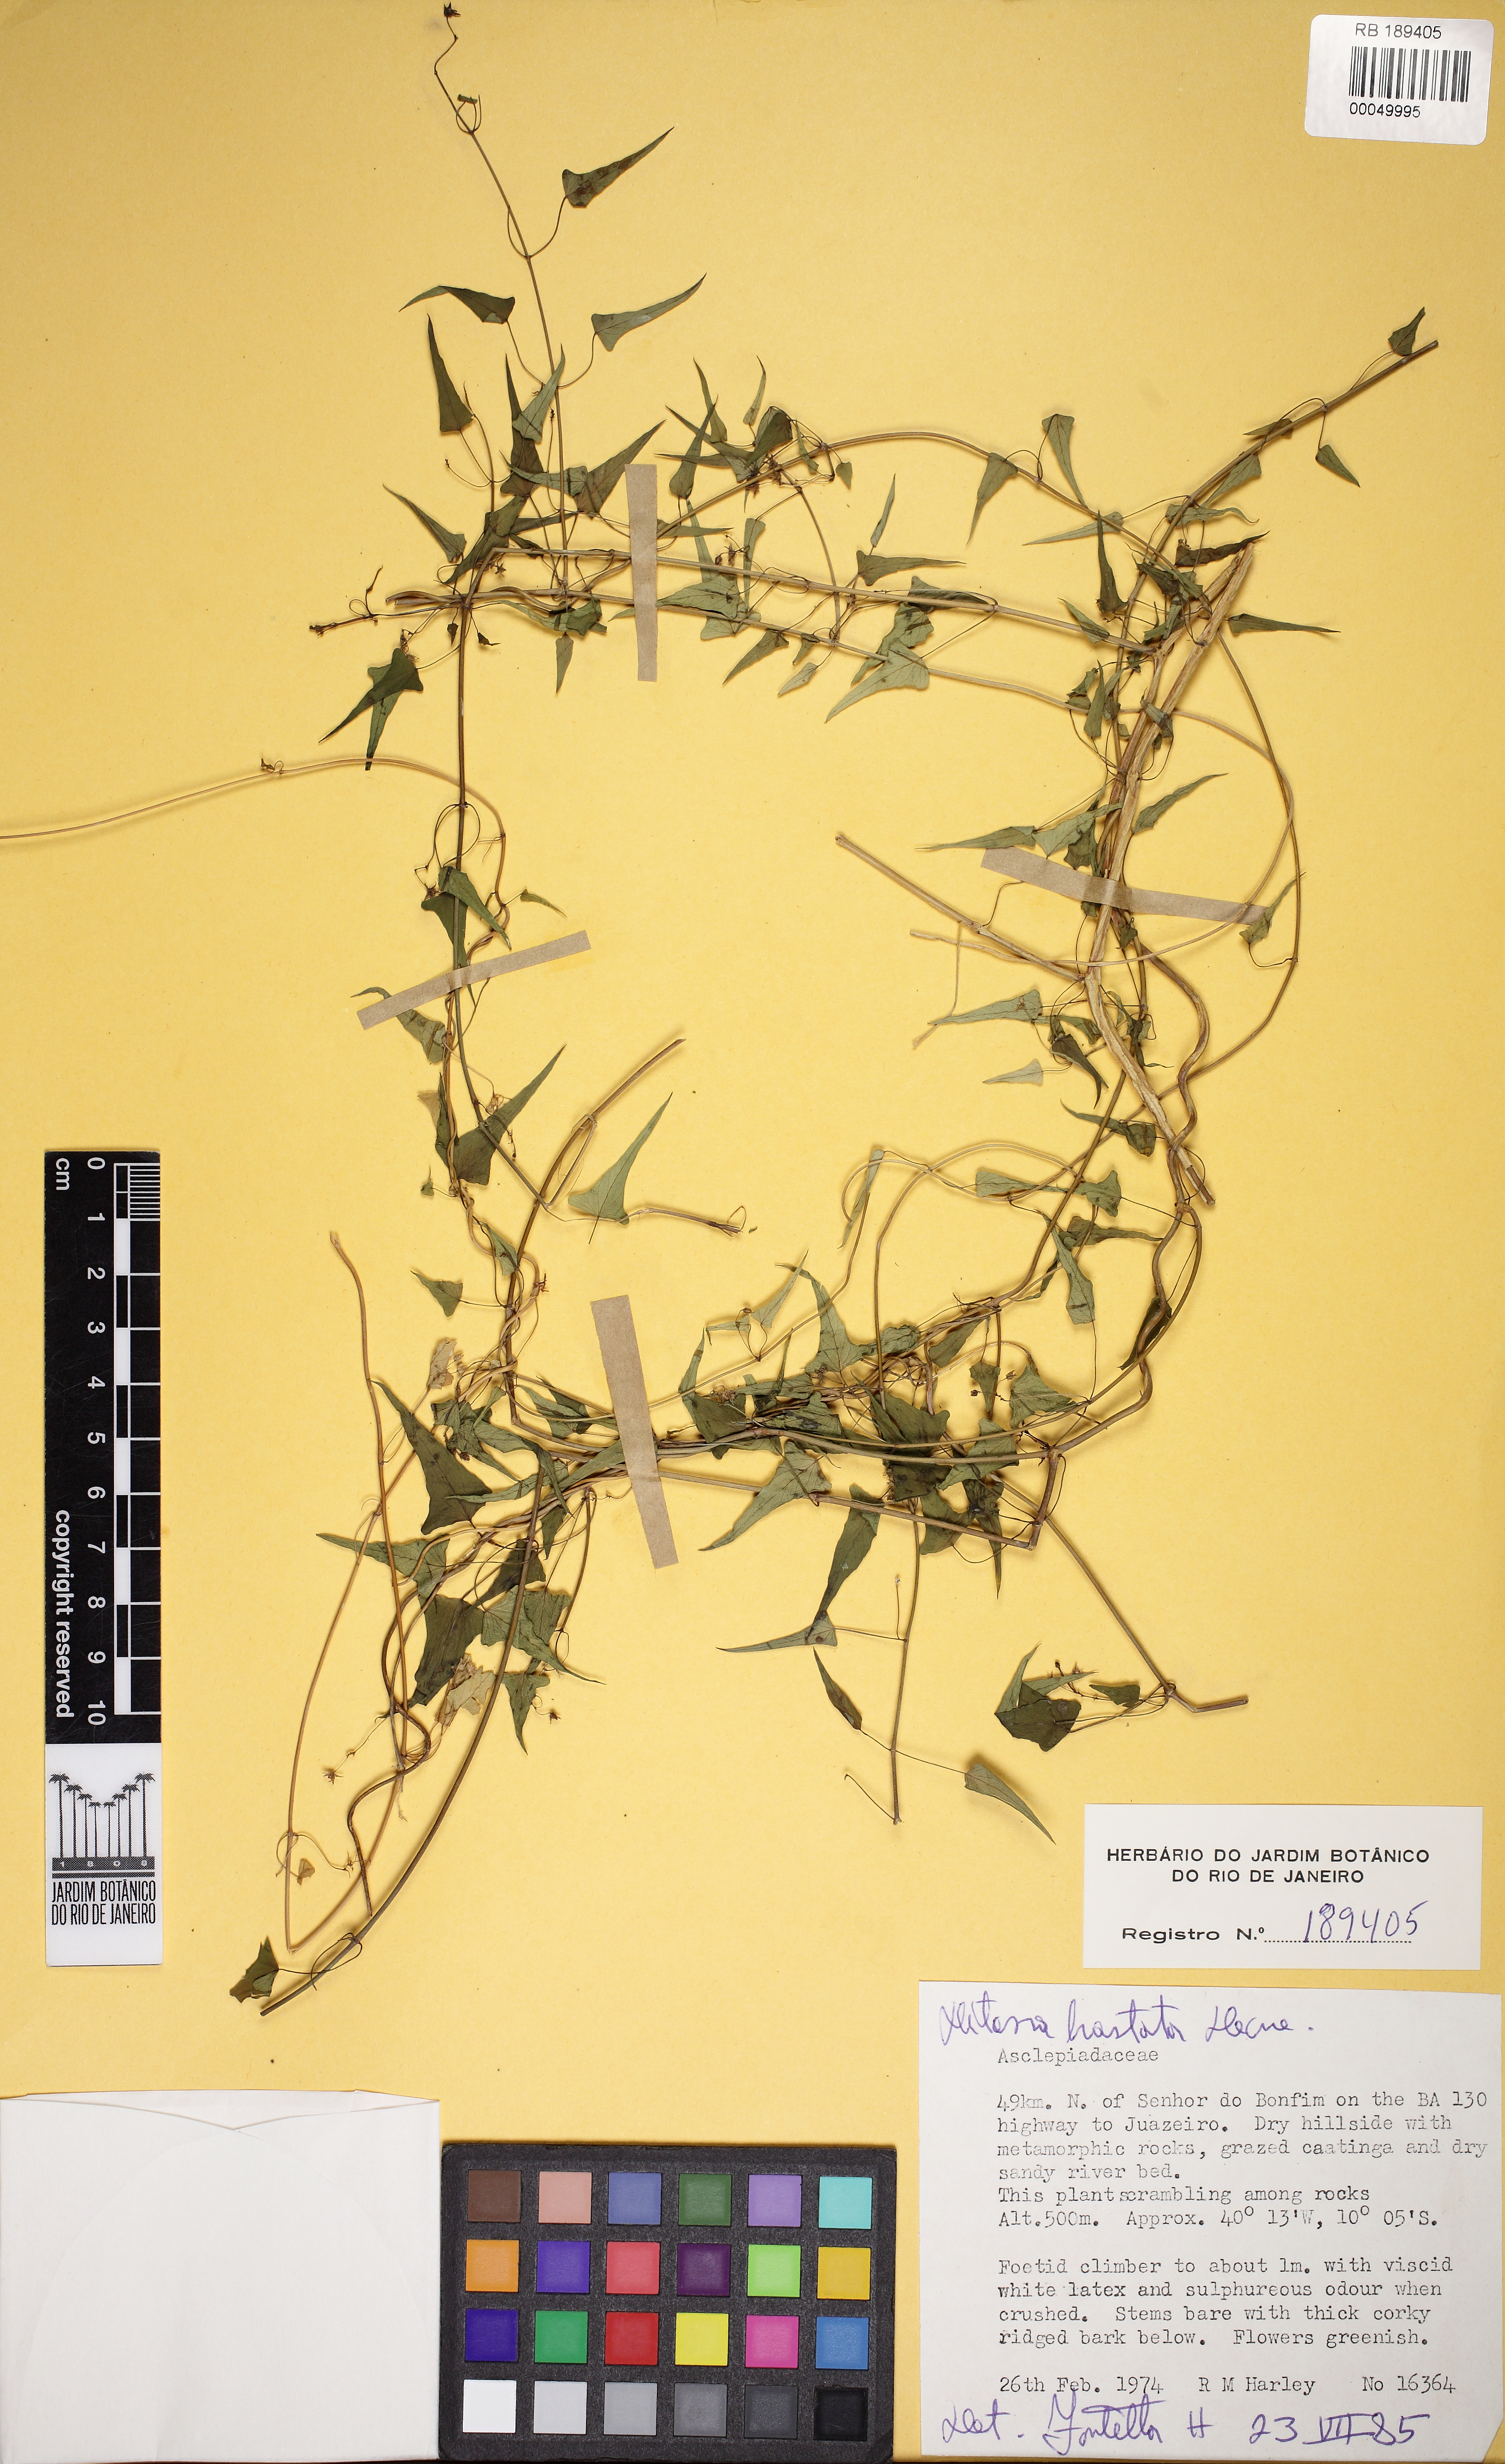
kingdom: Plantae
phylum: Tracheophyta
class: Magnoliopsida
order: Gentianales
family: Apocynaceae
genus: Ditassa
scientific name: Ditassa hastata
